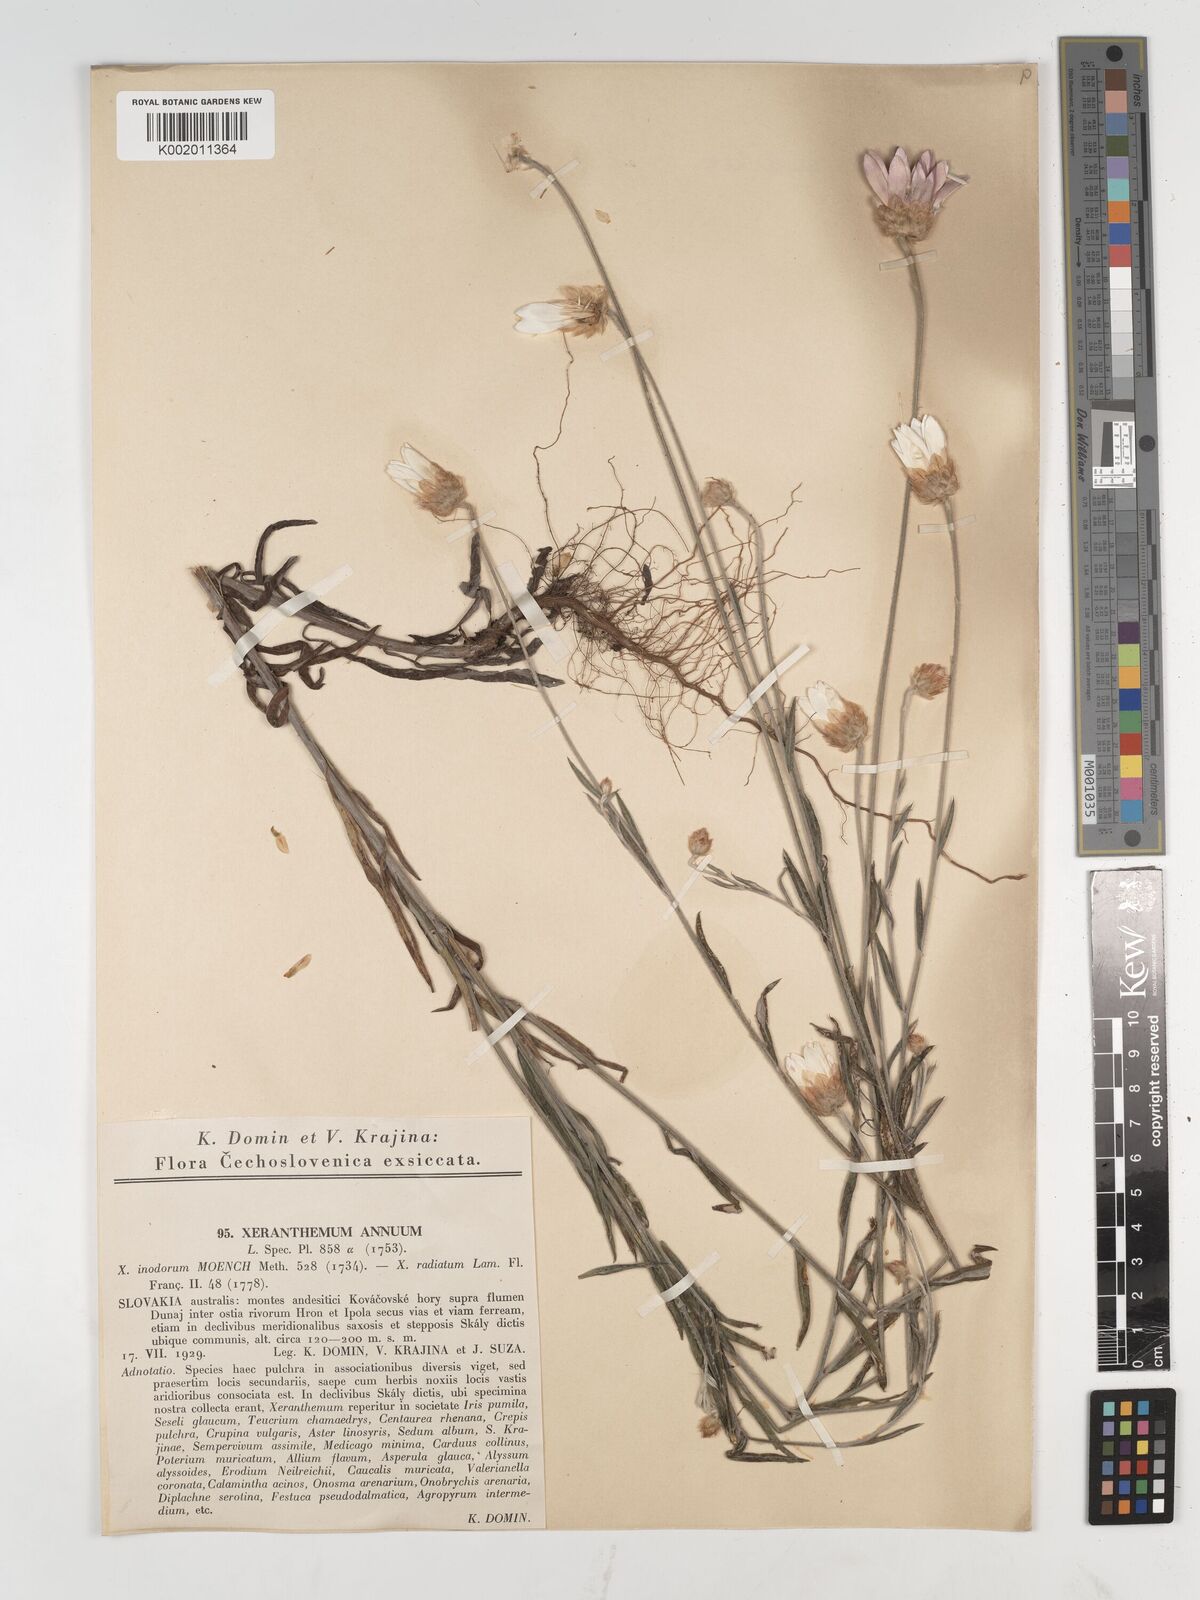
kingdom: Plantae
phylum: Tracheophyta
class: Magnoliopsida
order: Asterales
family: Asteraceae
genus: Xeranthemum
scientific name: Xeranthemum annuum
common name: Immortelle
